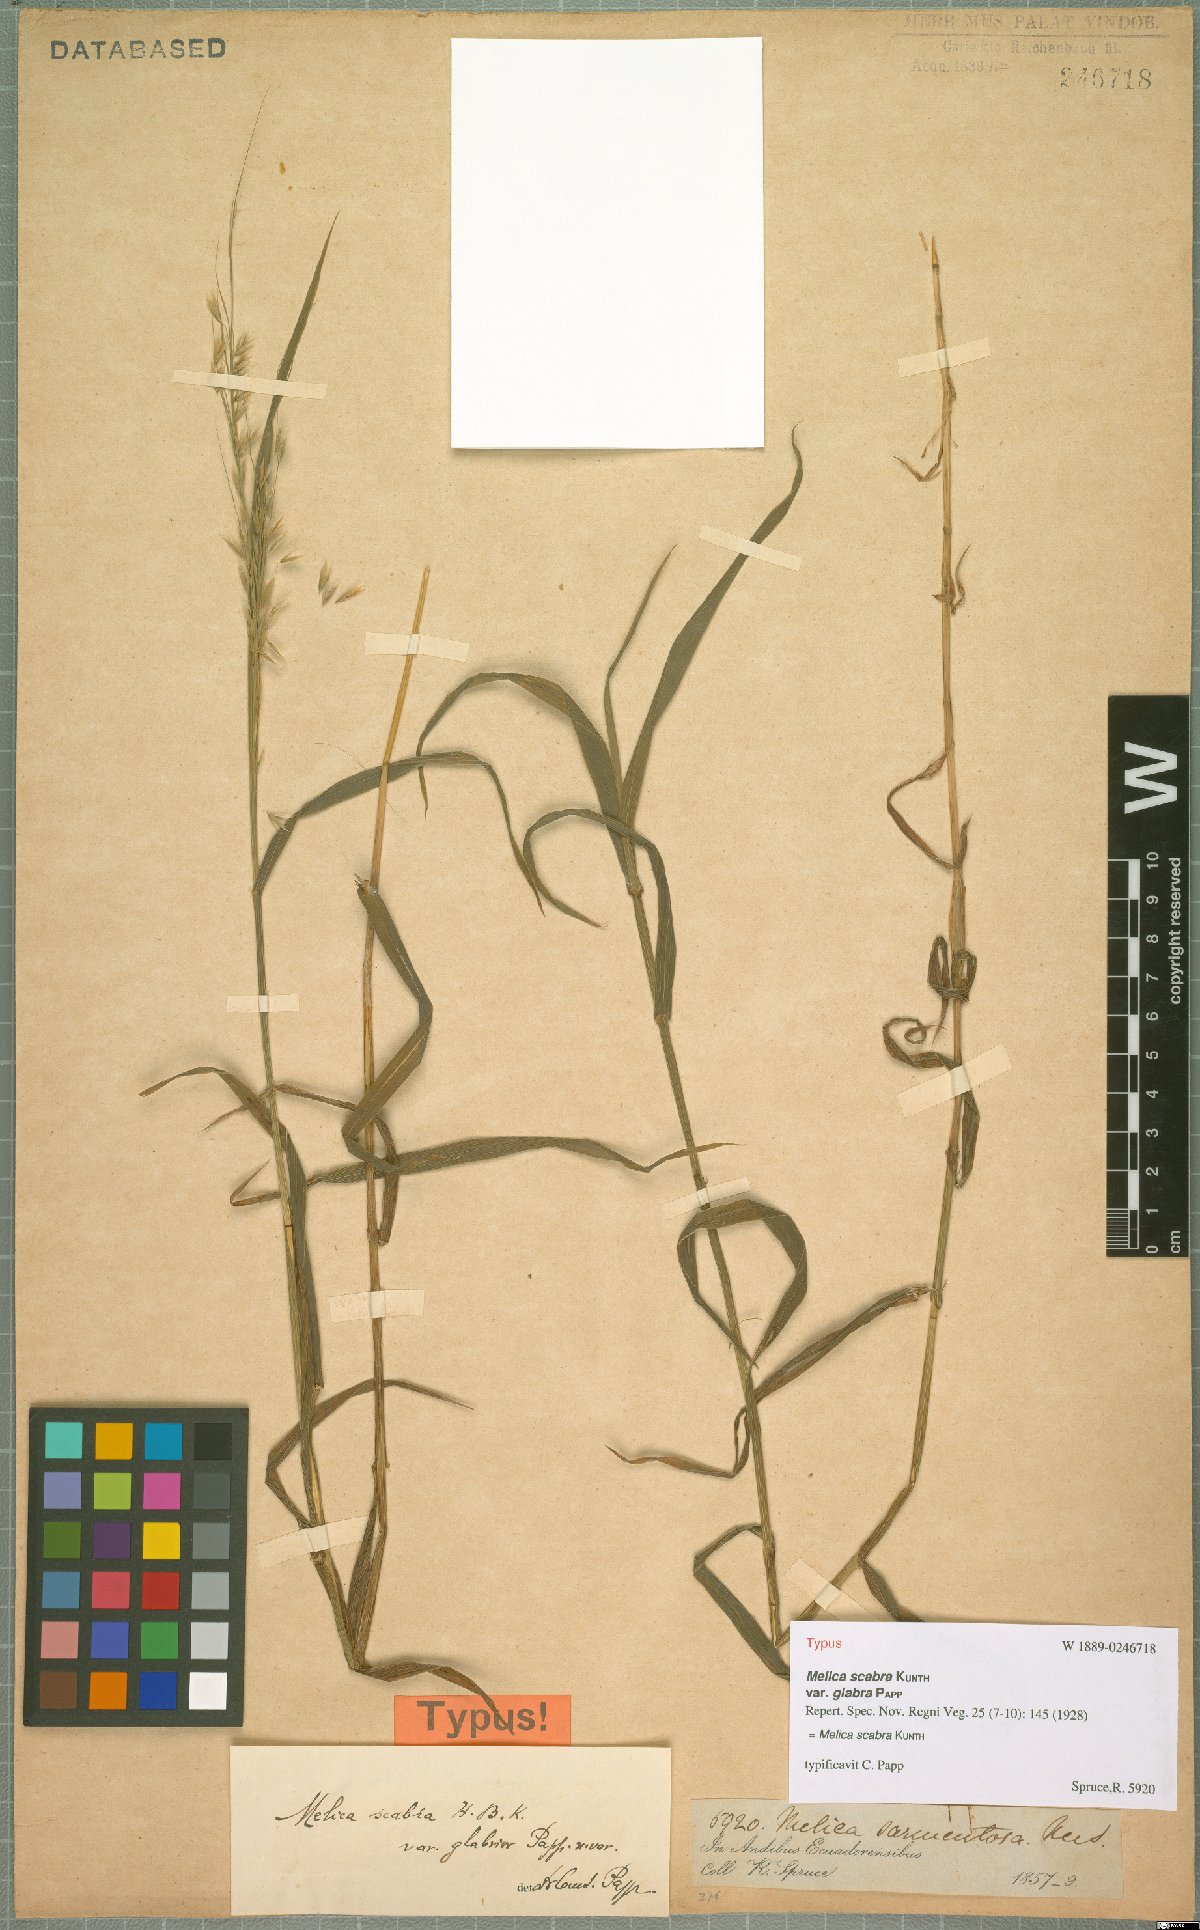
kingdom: Plantae
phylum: Tracheophyta
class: Liliopsida
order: Poales
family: Poaceae
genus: Melica
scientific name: Melica scabra
